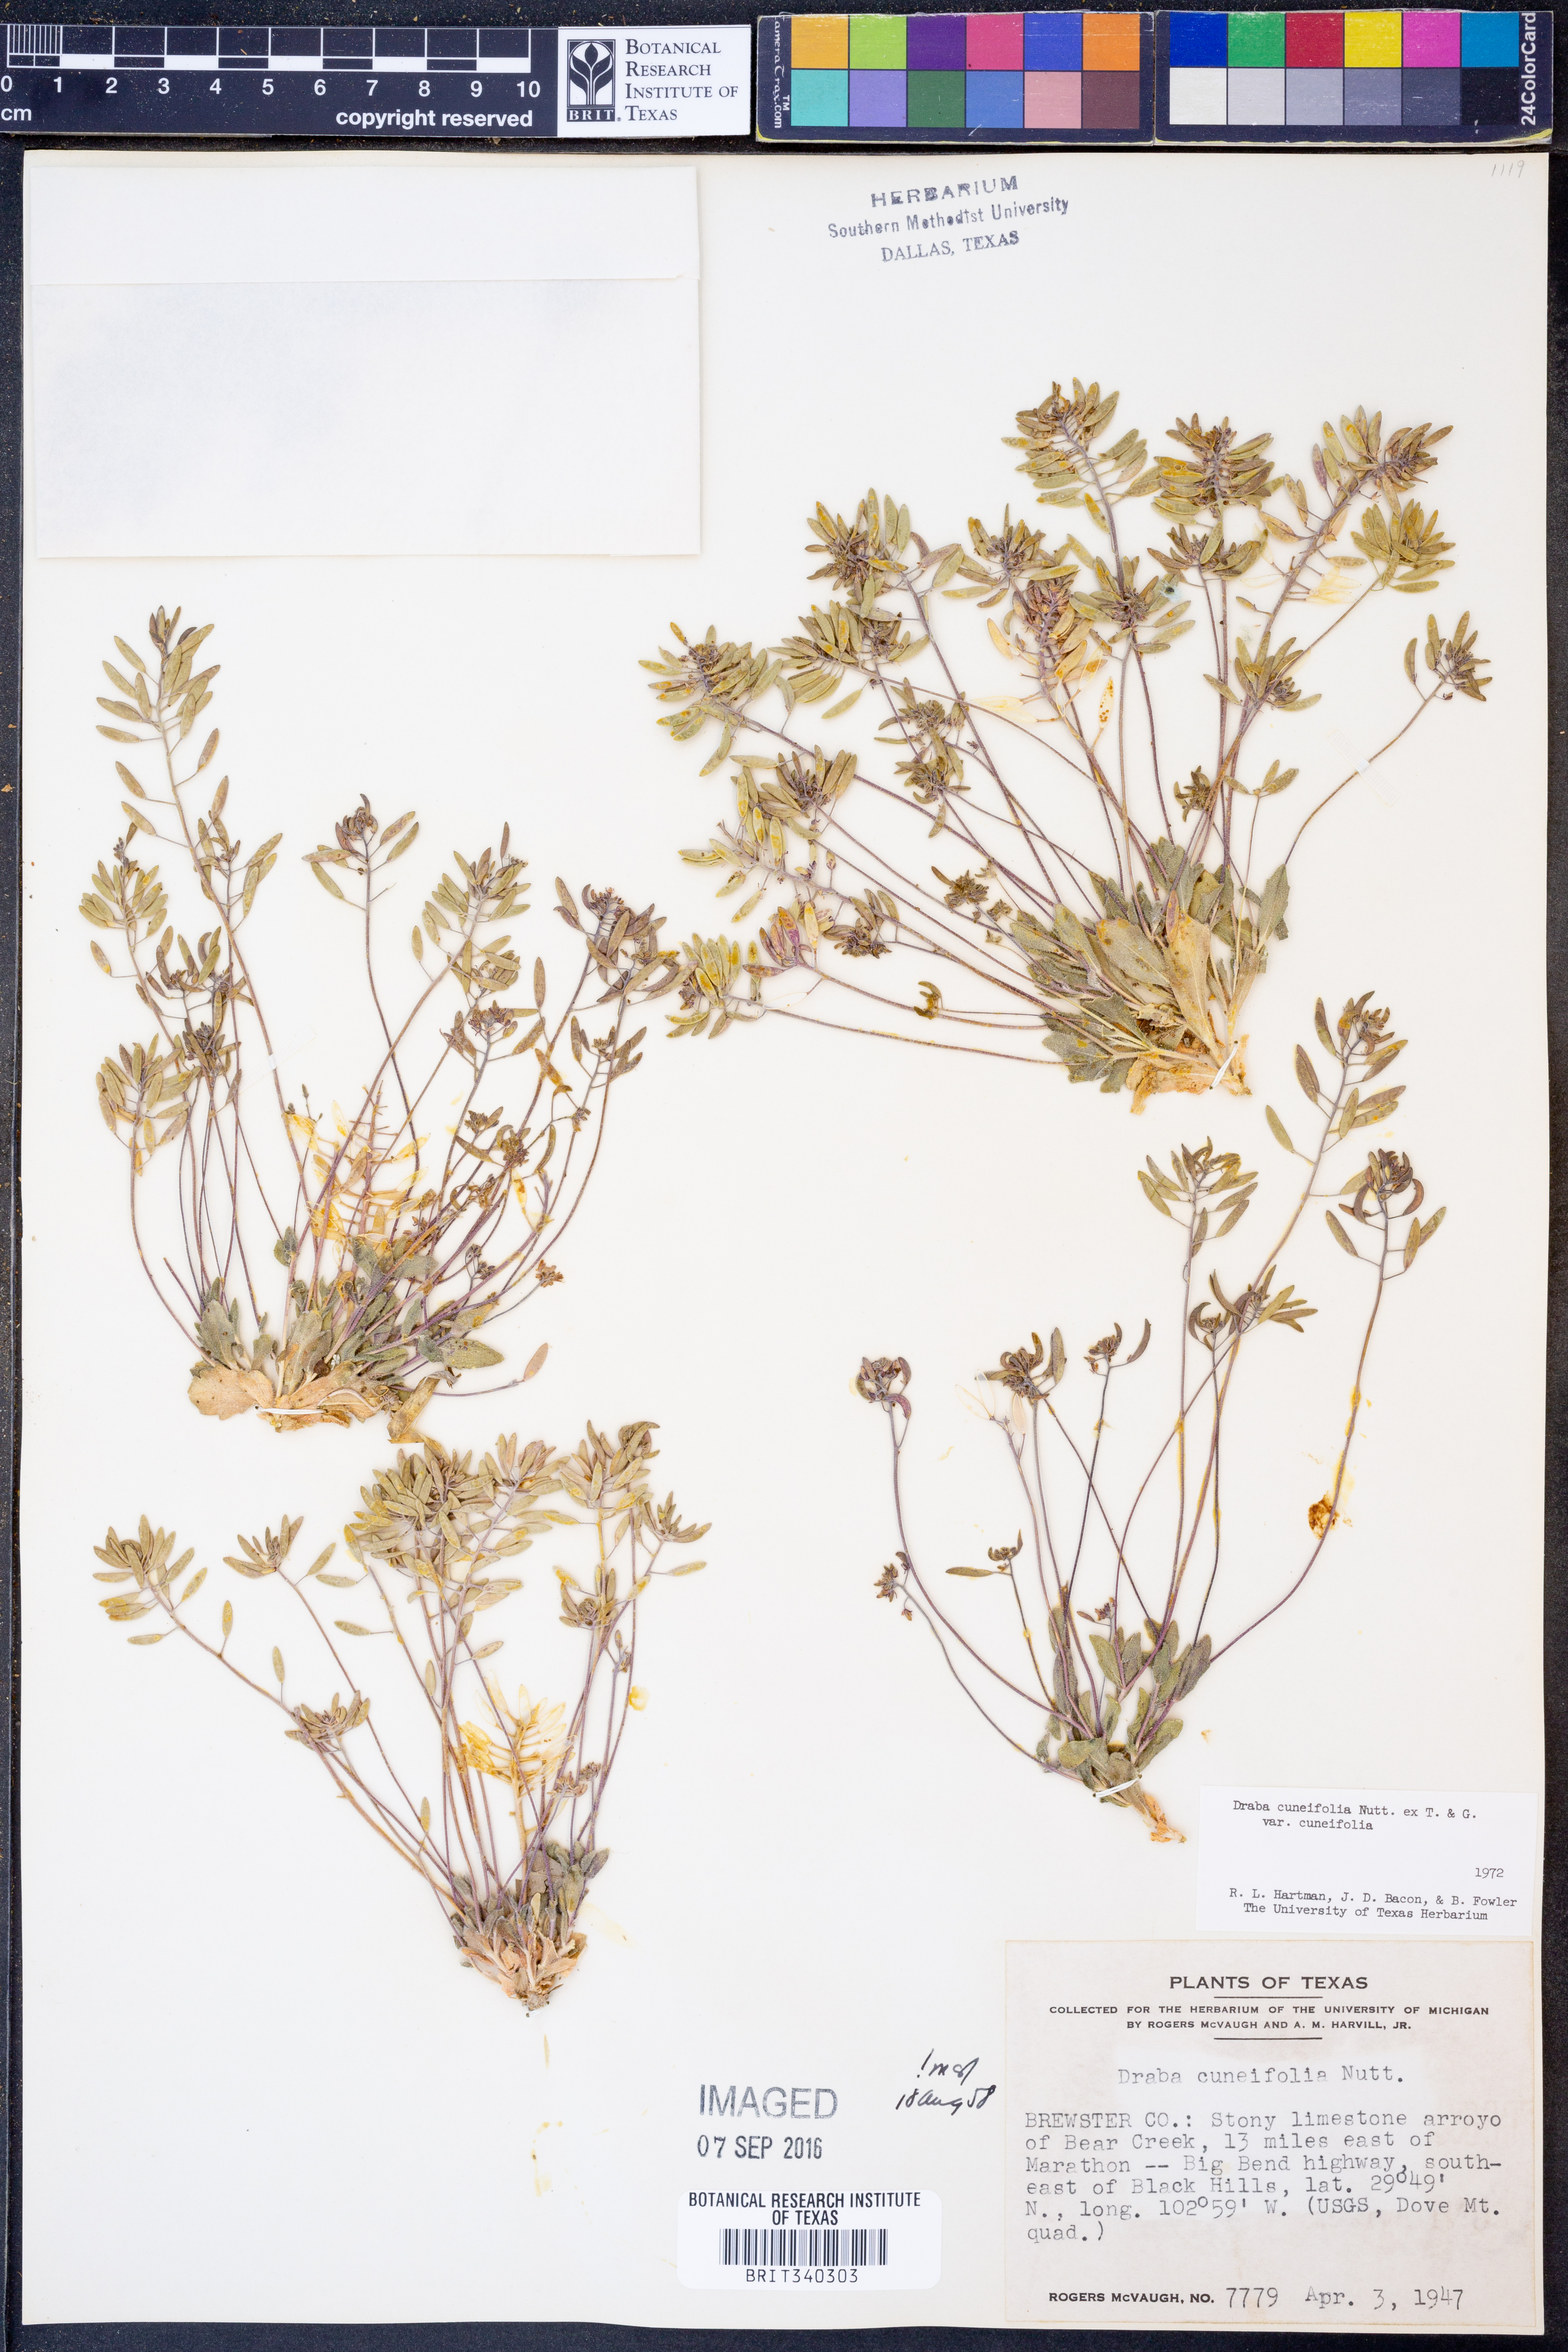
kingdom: Plantae
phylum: Tracheophyta
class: Magnoliopsida
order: Brassicales
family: Brassicaceae
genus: Tomostima
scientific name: Tomostima cuneifolia
